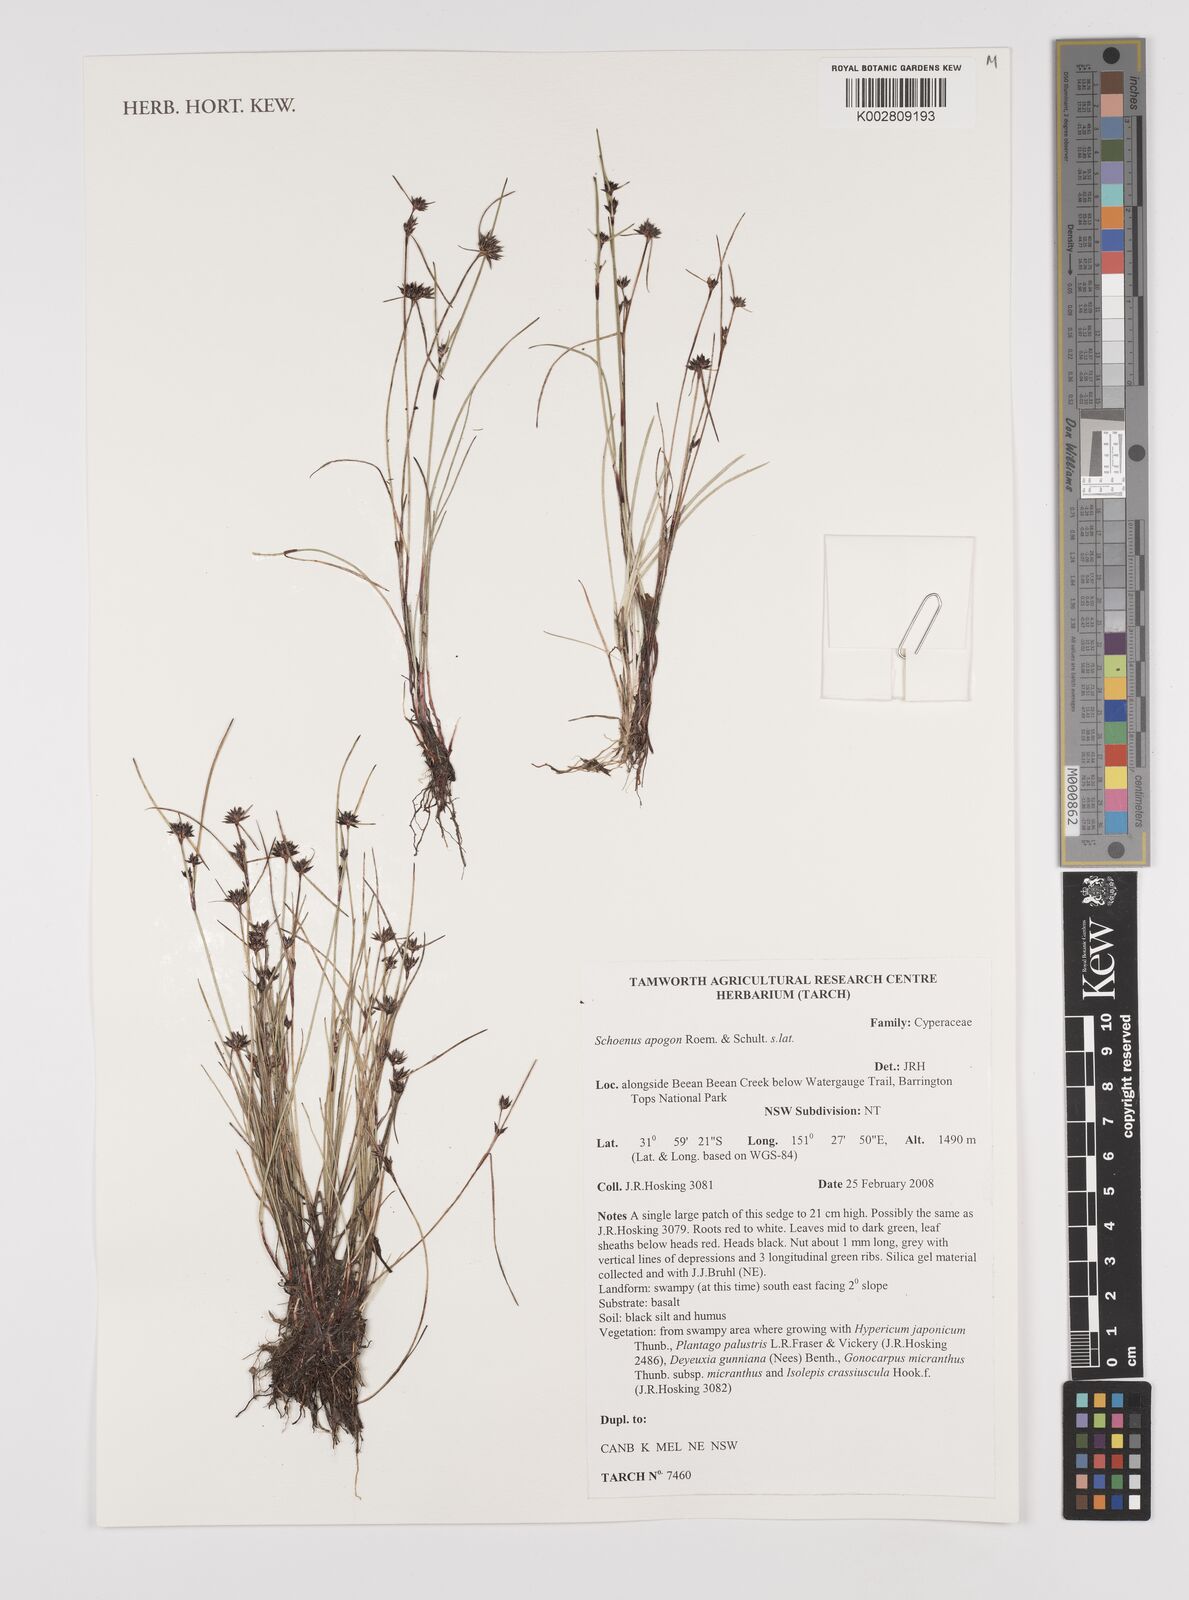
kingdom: Plantae
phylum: Tracheophyta
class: Liliopsida
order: Poales
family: Cyperaceae
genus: Schoenus
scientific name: Schoenus apogon
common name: Smooth bogrush
